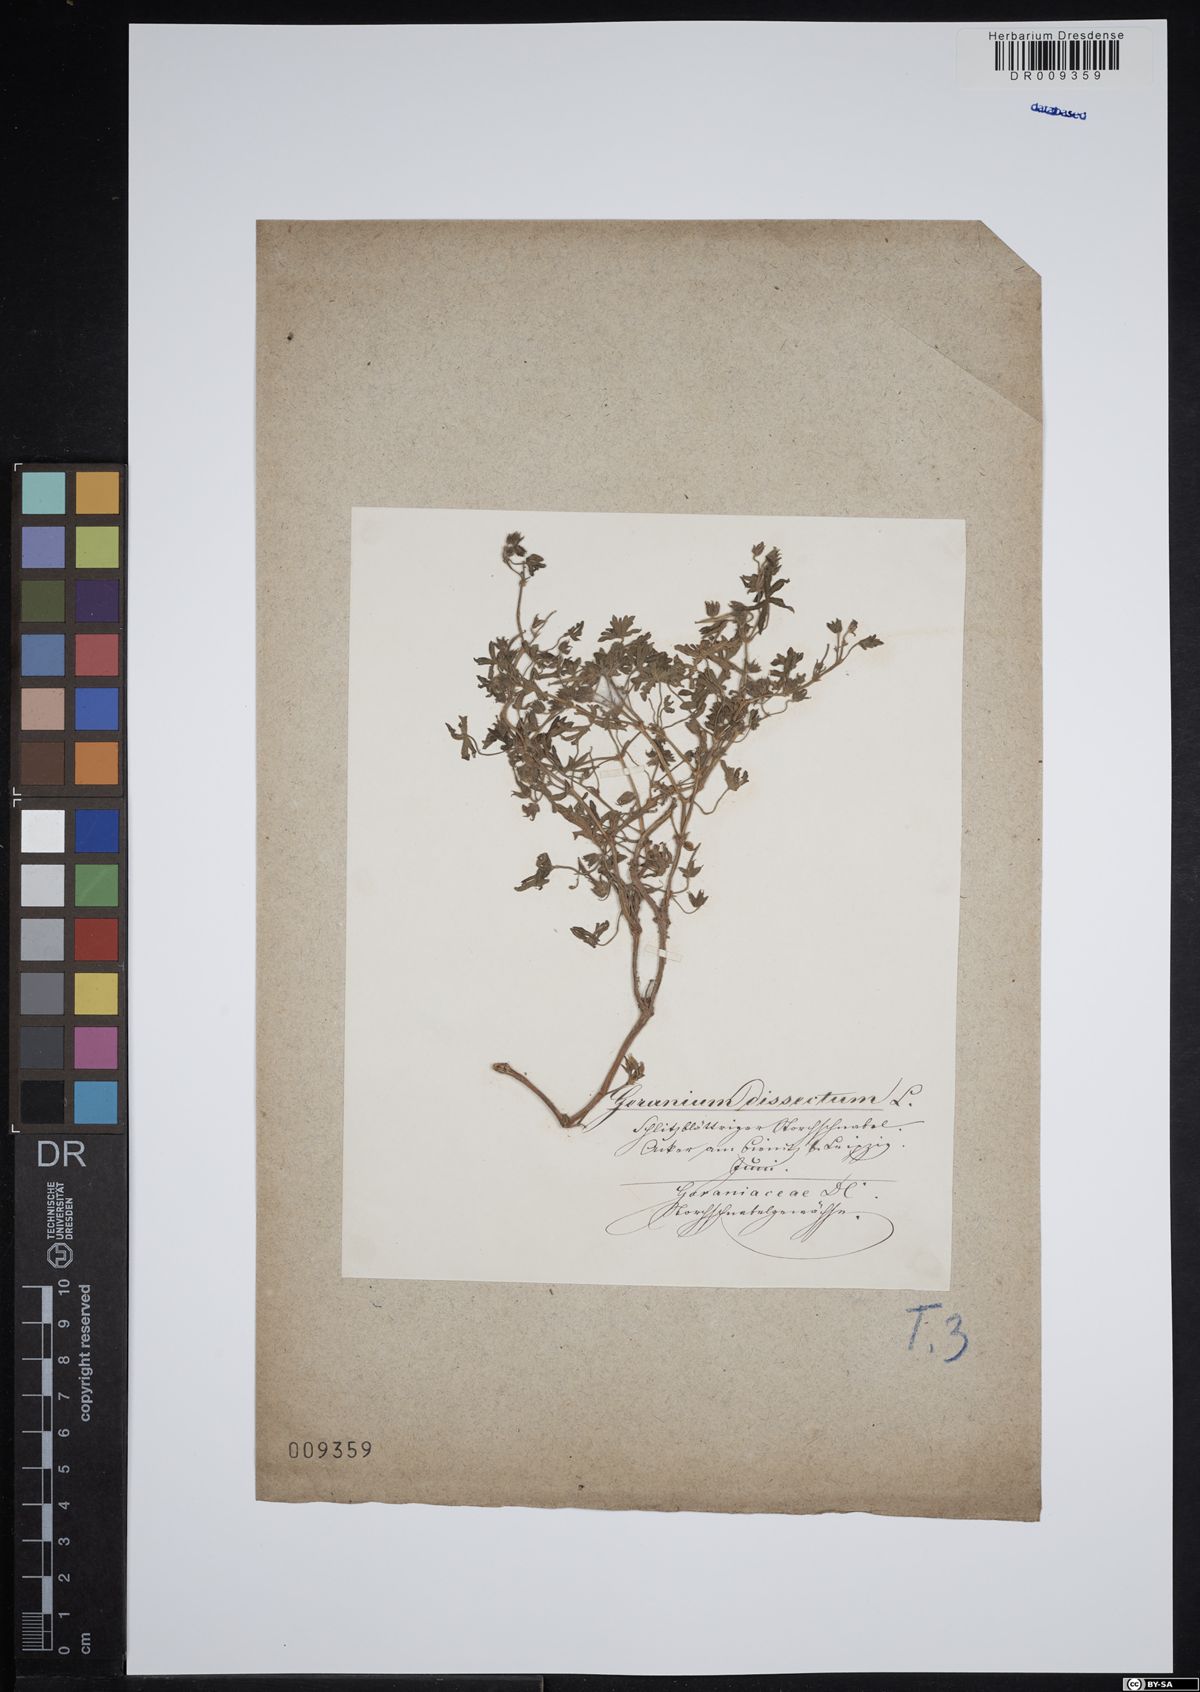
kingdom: Plantae
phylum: Tracheophyta
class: Magnoliopsida
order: Geraniales
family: Geraniaceae
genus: Geranium
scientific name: Geranium dissectum
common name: Cut-leaved crane's-bill
